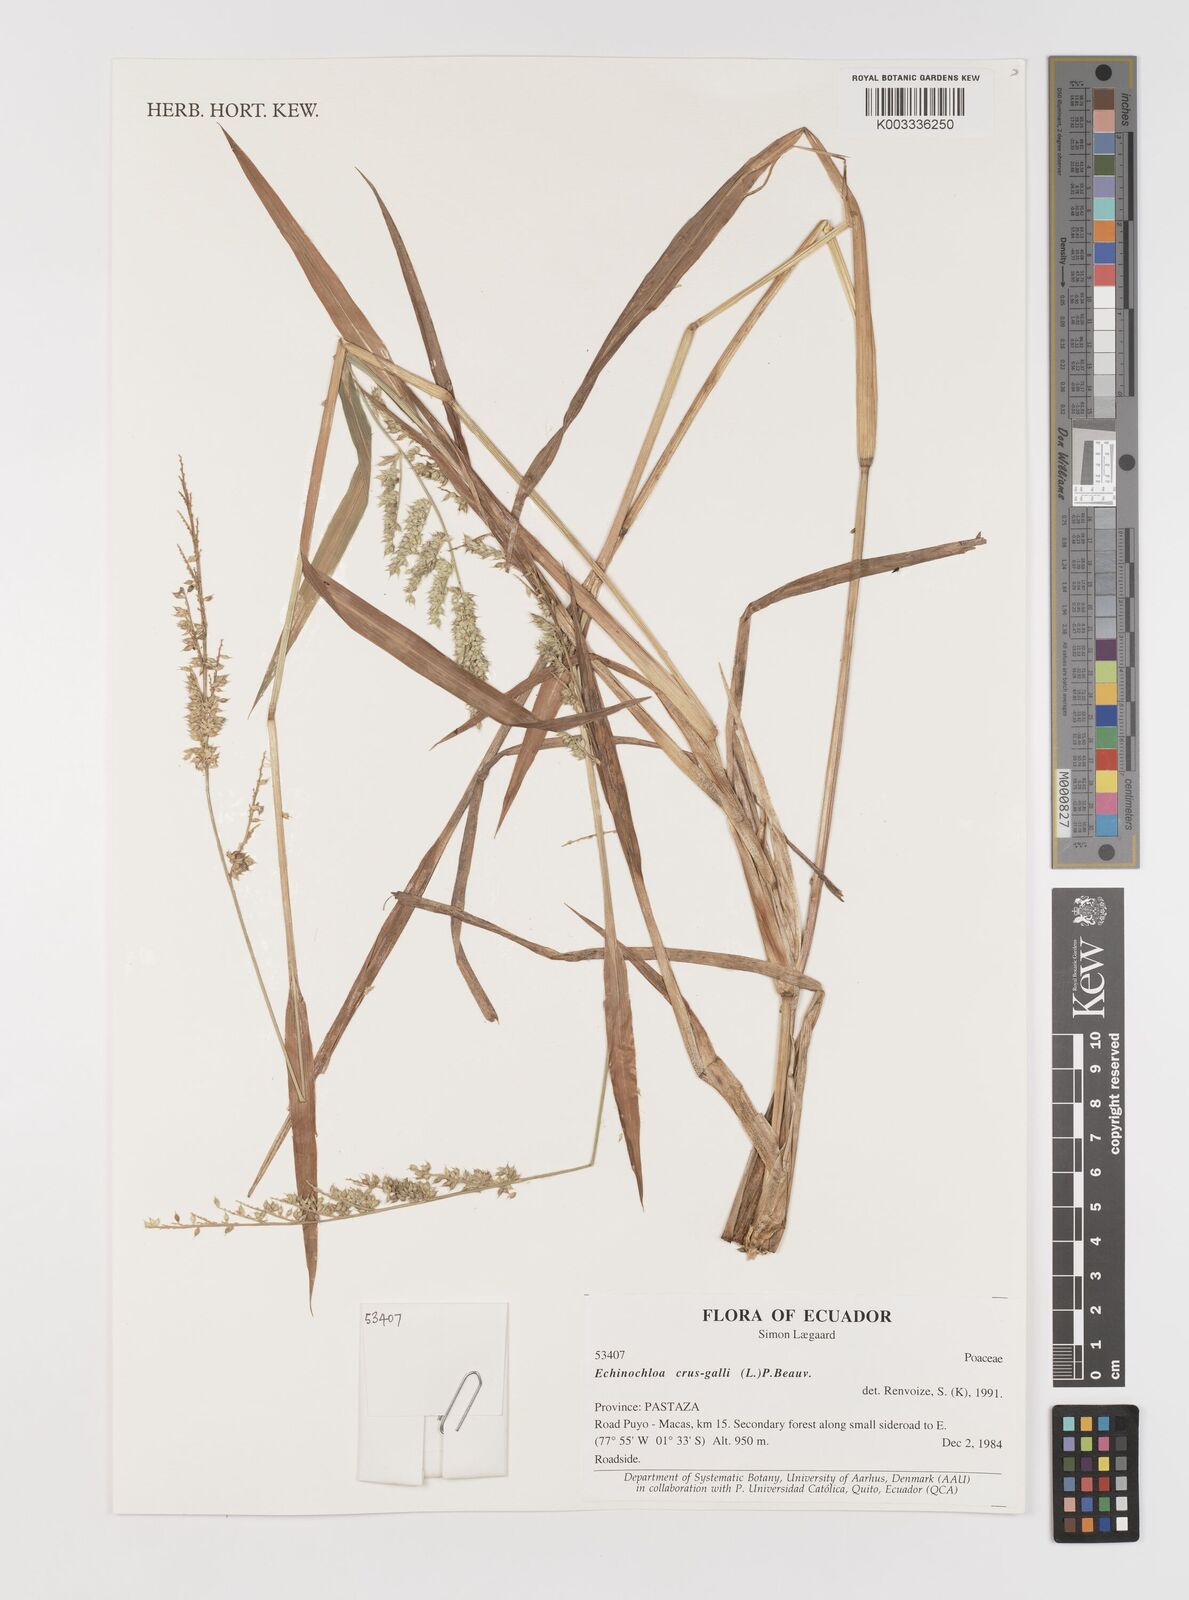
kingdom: Plantae
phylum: Tracheophyta
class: Liliopsida
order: Poales
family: Poaceae
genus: Echinochloa
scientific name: Echinochloa crus-galli
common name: Cockspur
